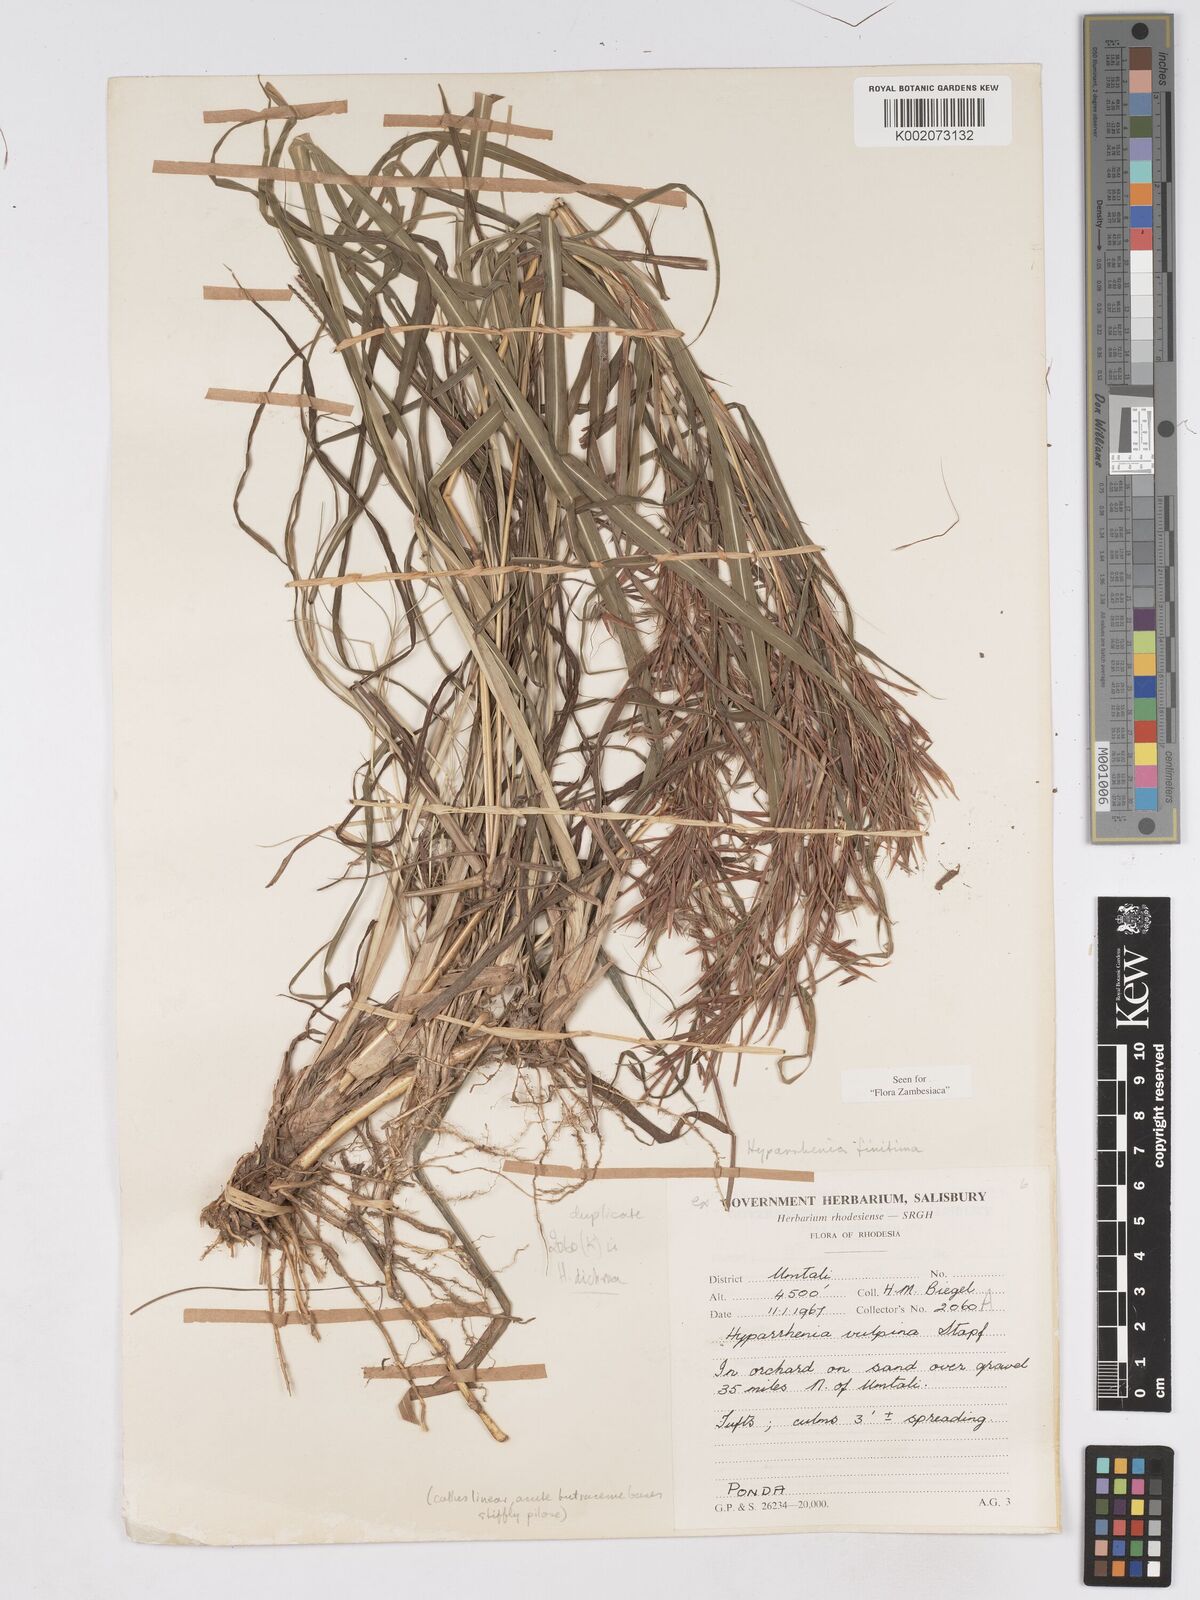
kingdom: Plantae
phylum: Tracheophyta
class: Liliopsida
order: Poales
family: Poaceae
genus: Hyparrhenia
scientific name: Hyparrhenia finitima
